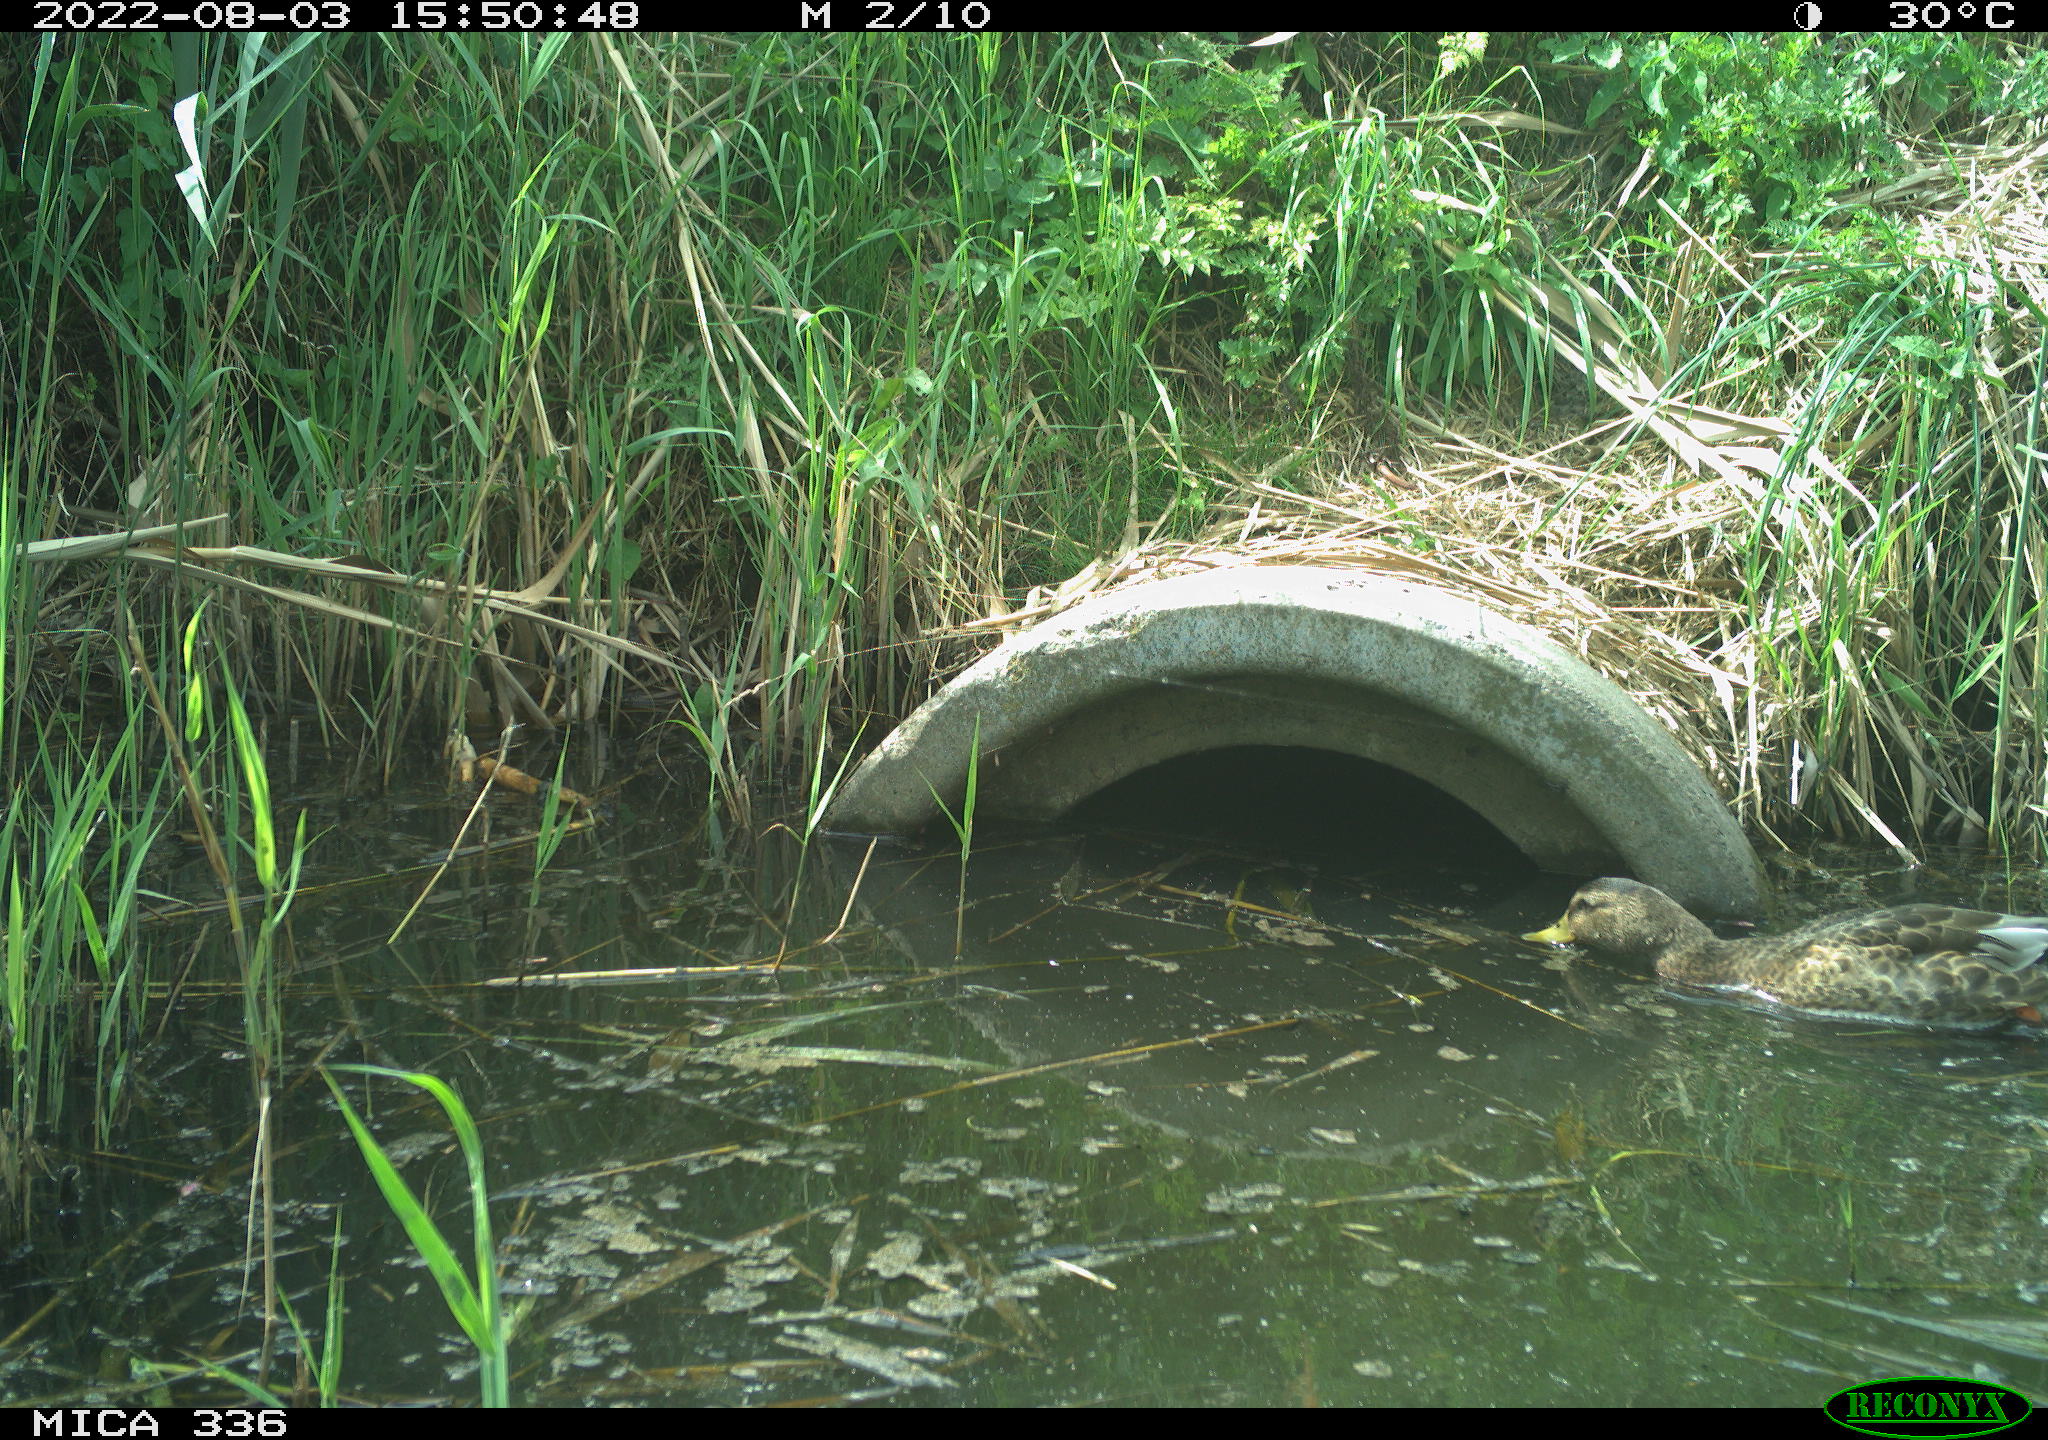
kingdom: Animalia
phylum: Chordata
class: Aves
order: Anseriformes
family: Anatidae
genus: Anas
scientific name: Anas platyrhynchos
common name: Mallard
